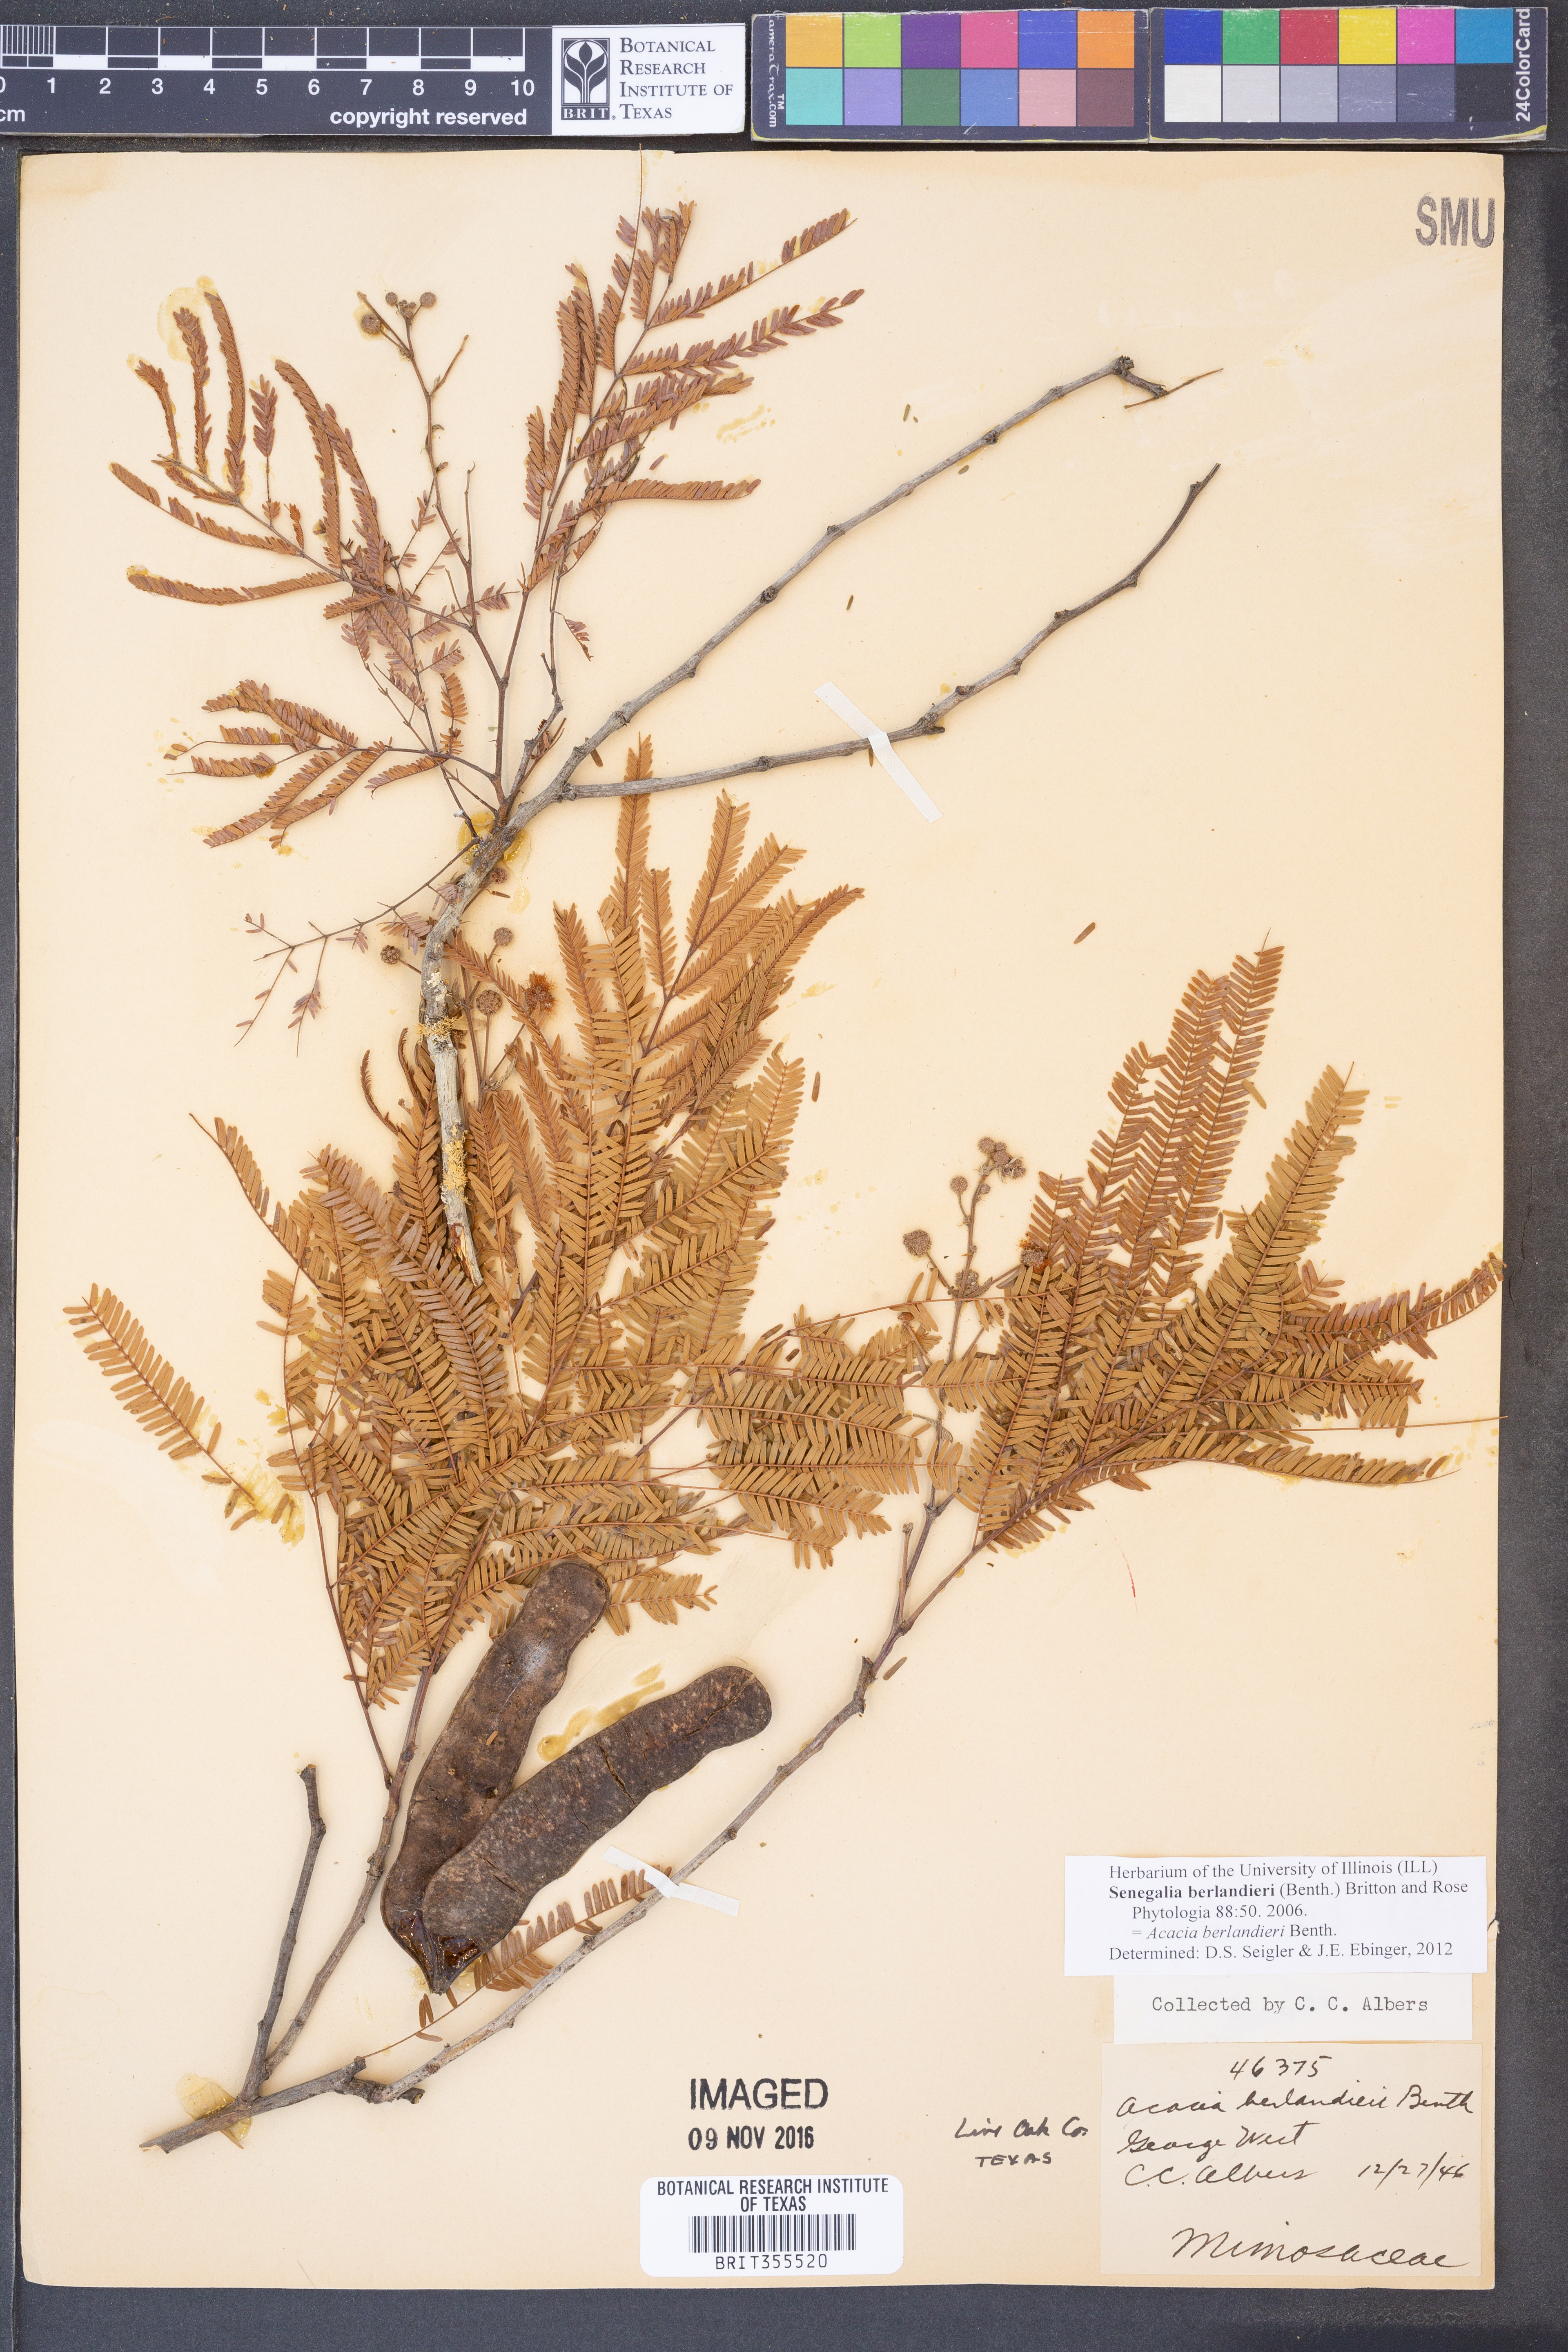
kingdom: Plantae
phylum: Tracheophyta
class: Magnoliopsida
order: Fabales
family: Fabaceae
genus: Senegalia
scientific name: Senegalia berlandieri
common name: Berlandier acacia
